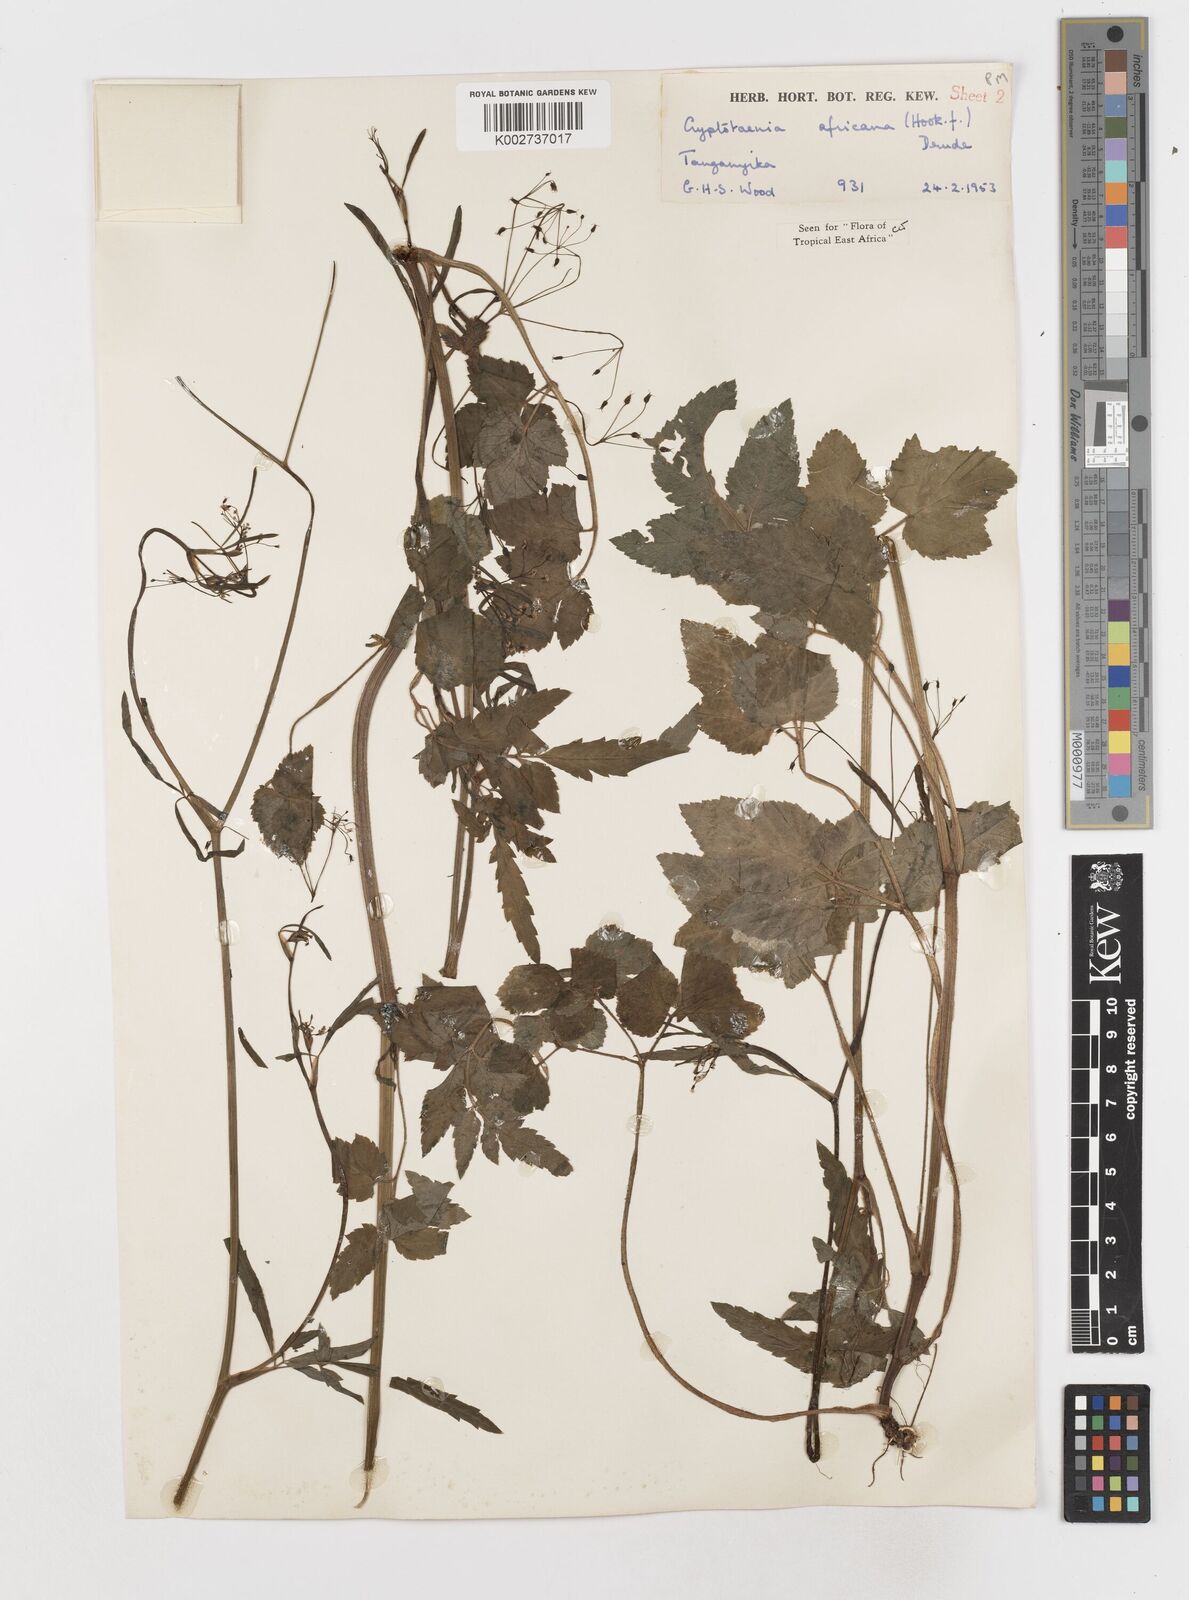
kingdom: Plantae
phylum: Tracheophyta
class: Magnoliopsida
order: Apiales
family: Apiaceae
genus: Cryptotaenia
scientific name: Cryptotaenia africana
